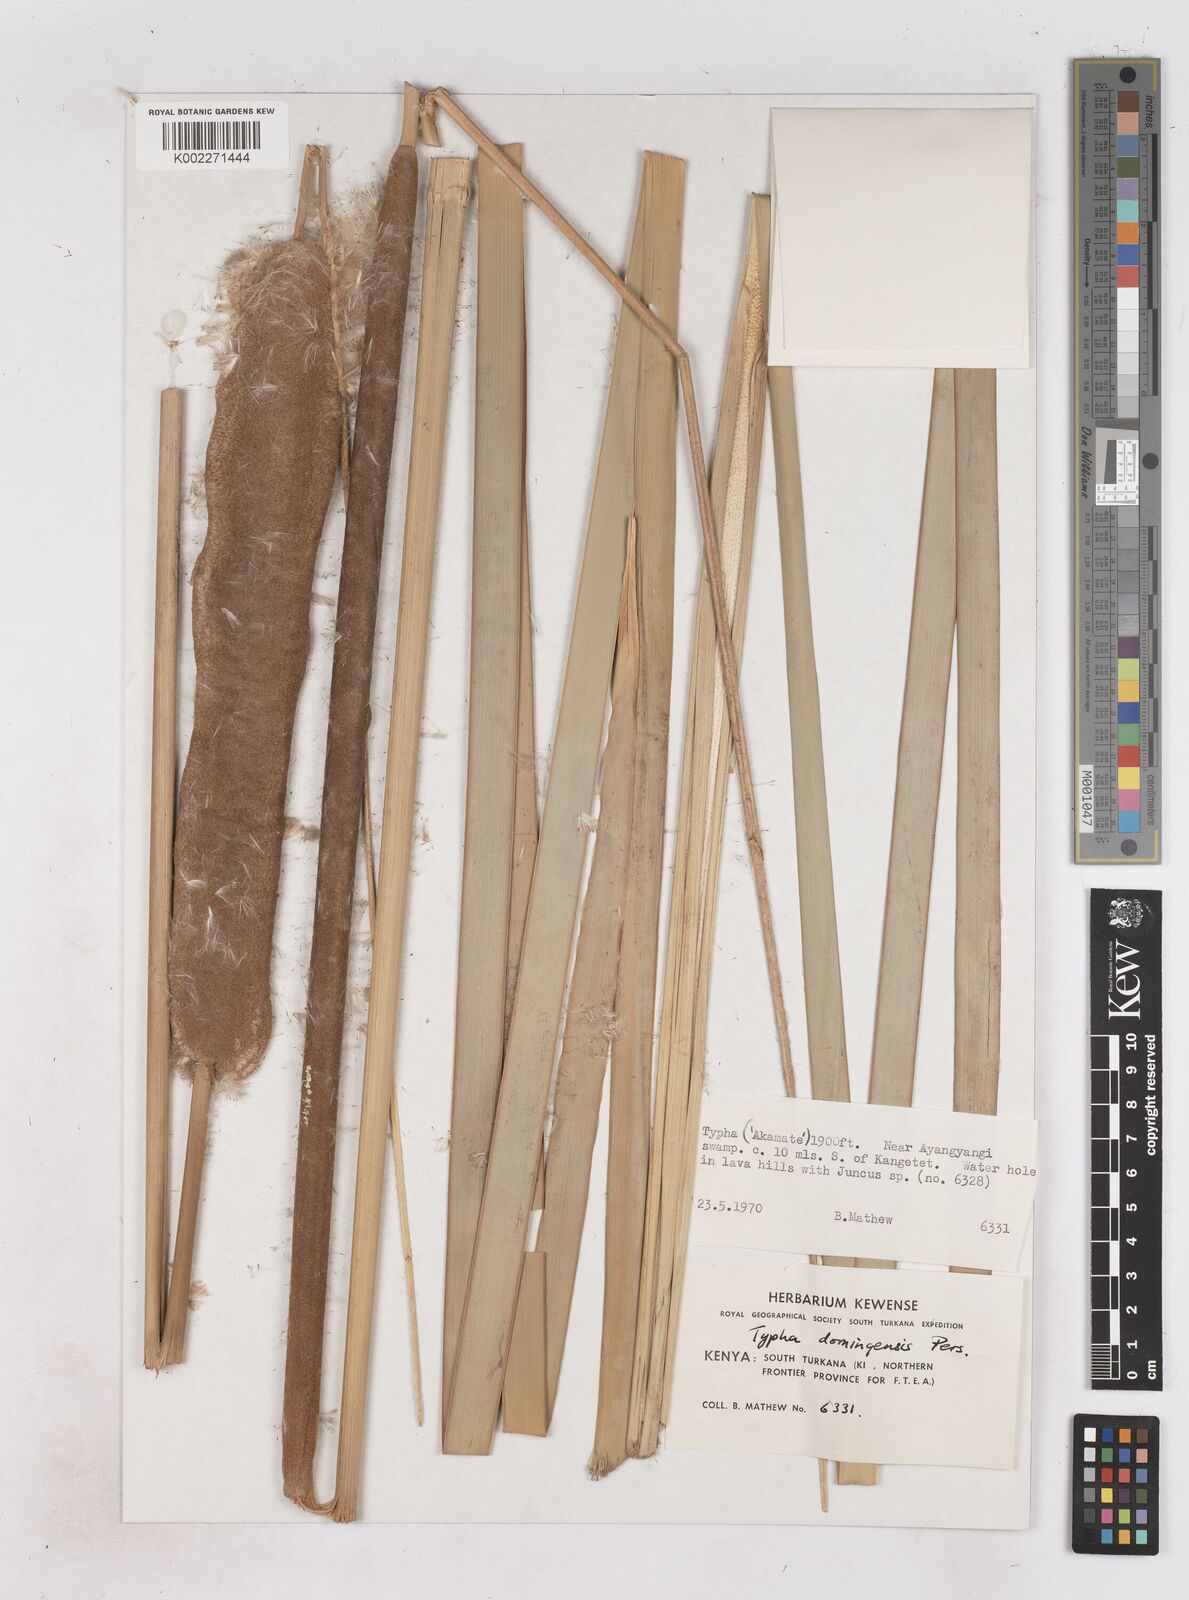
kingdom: Plantae
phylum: Tracheophyta
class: Liliopsida
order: Poales
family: Typhaceae
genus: Typha
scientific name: Typha domingensis
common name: Southern cattail
